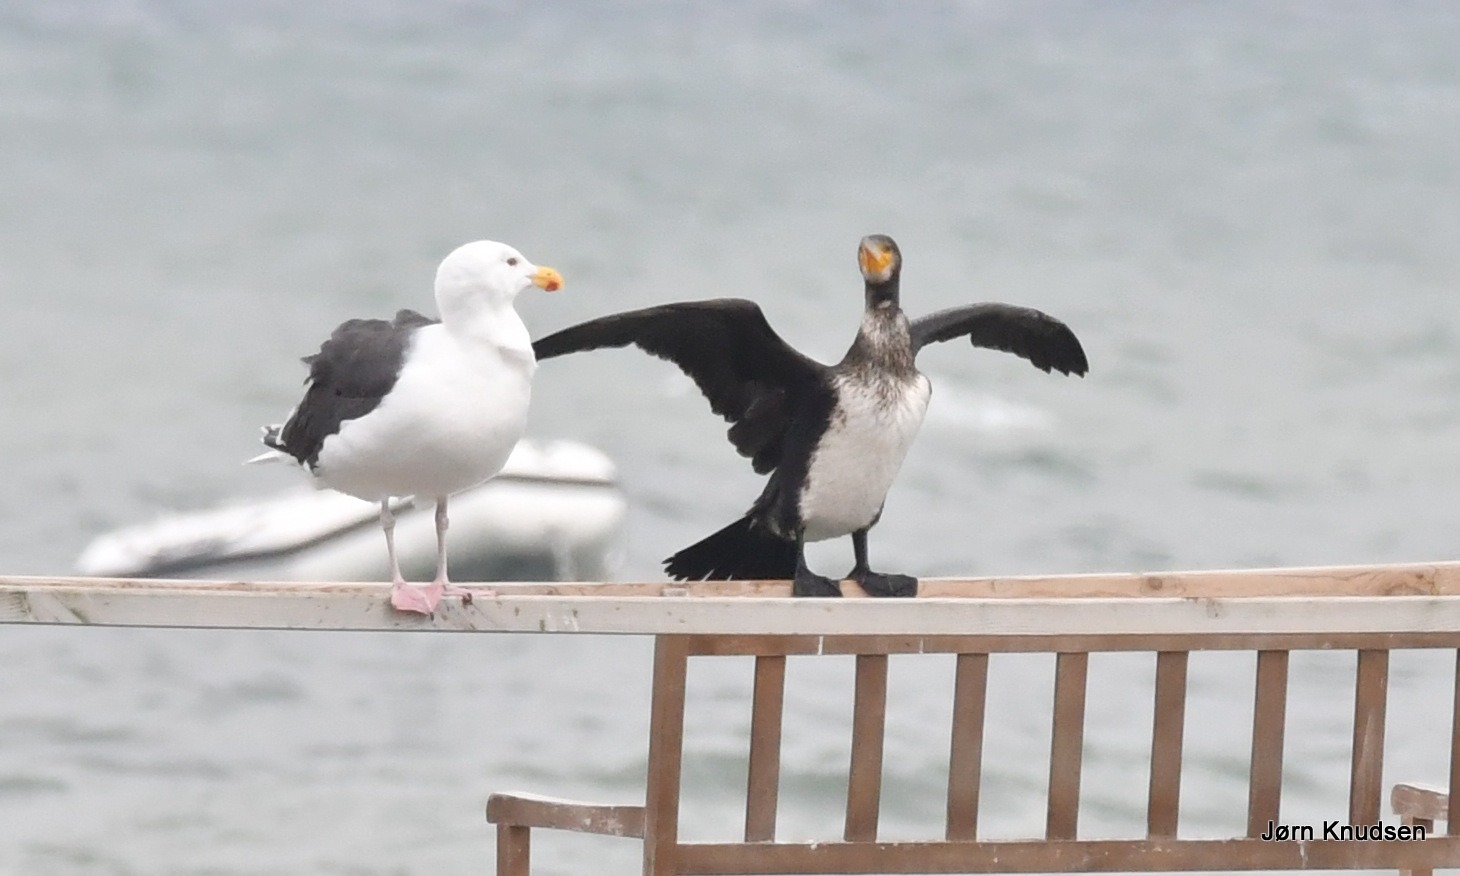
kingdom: Animalia
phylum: Chordata
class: Aves
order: Charadriiformes
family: Laridae
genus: Larus
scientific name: Larus marinus
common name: Svartbag
